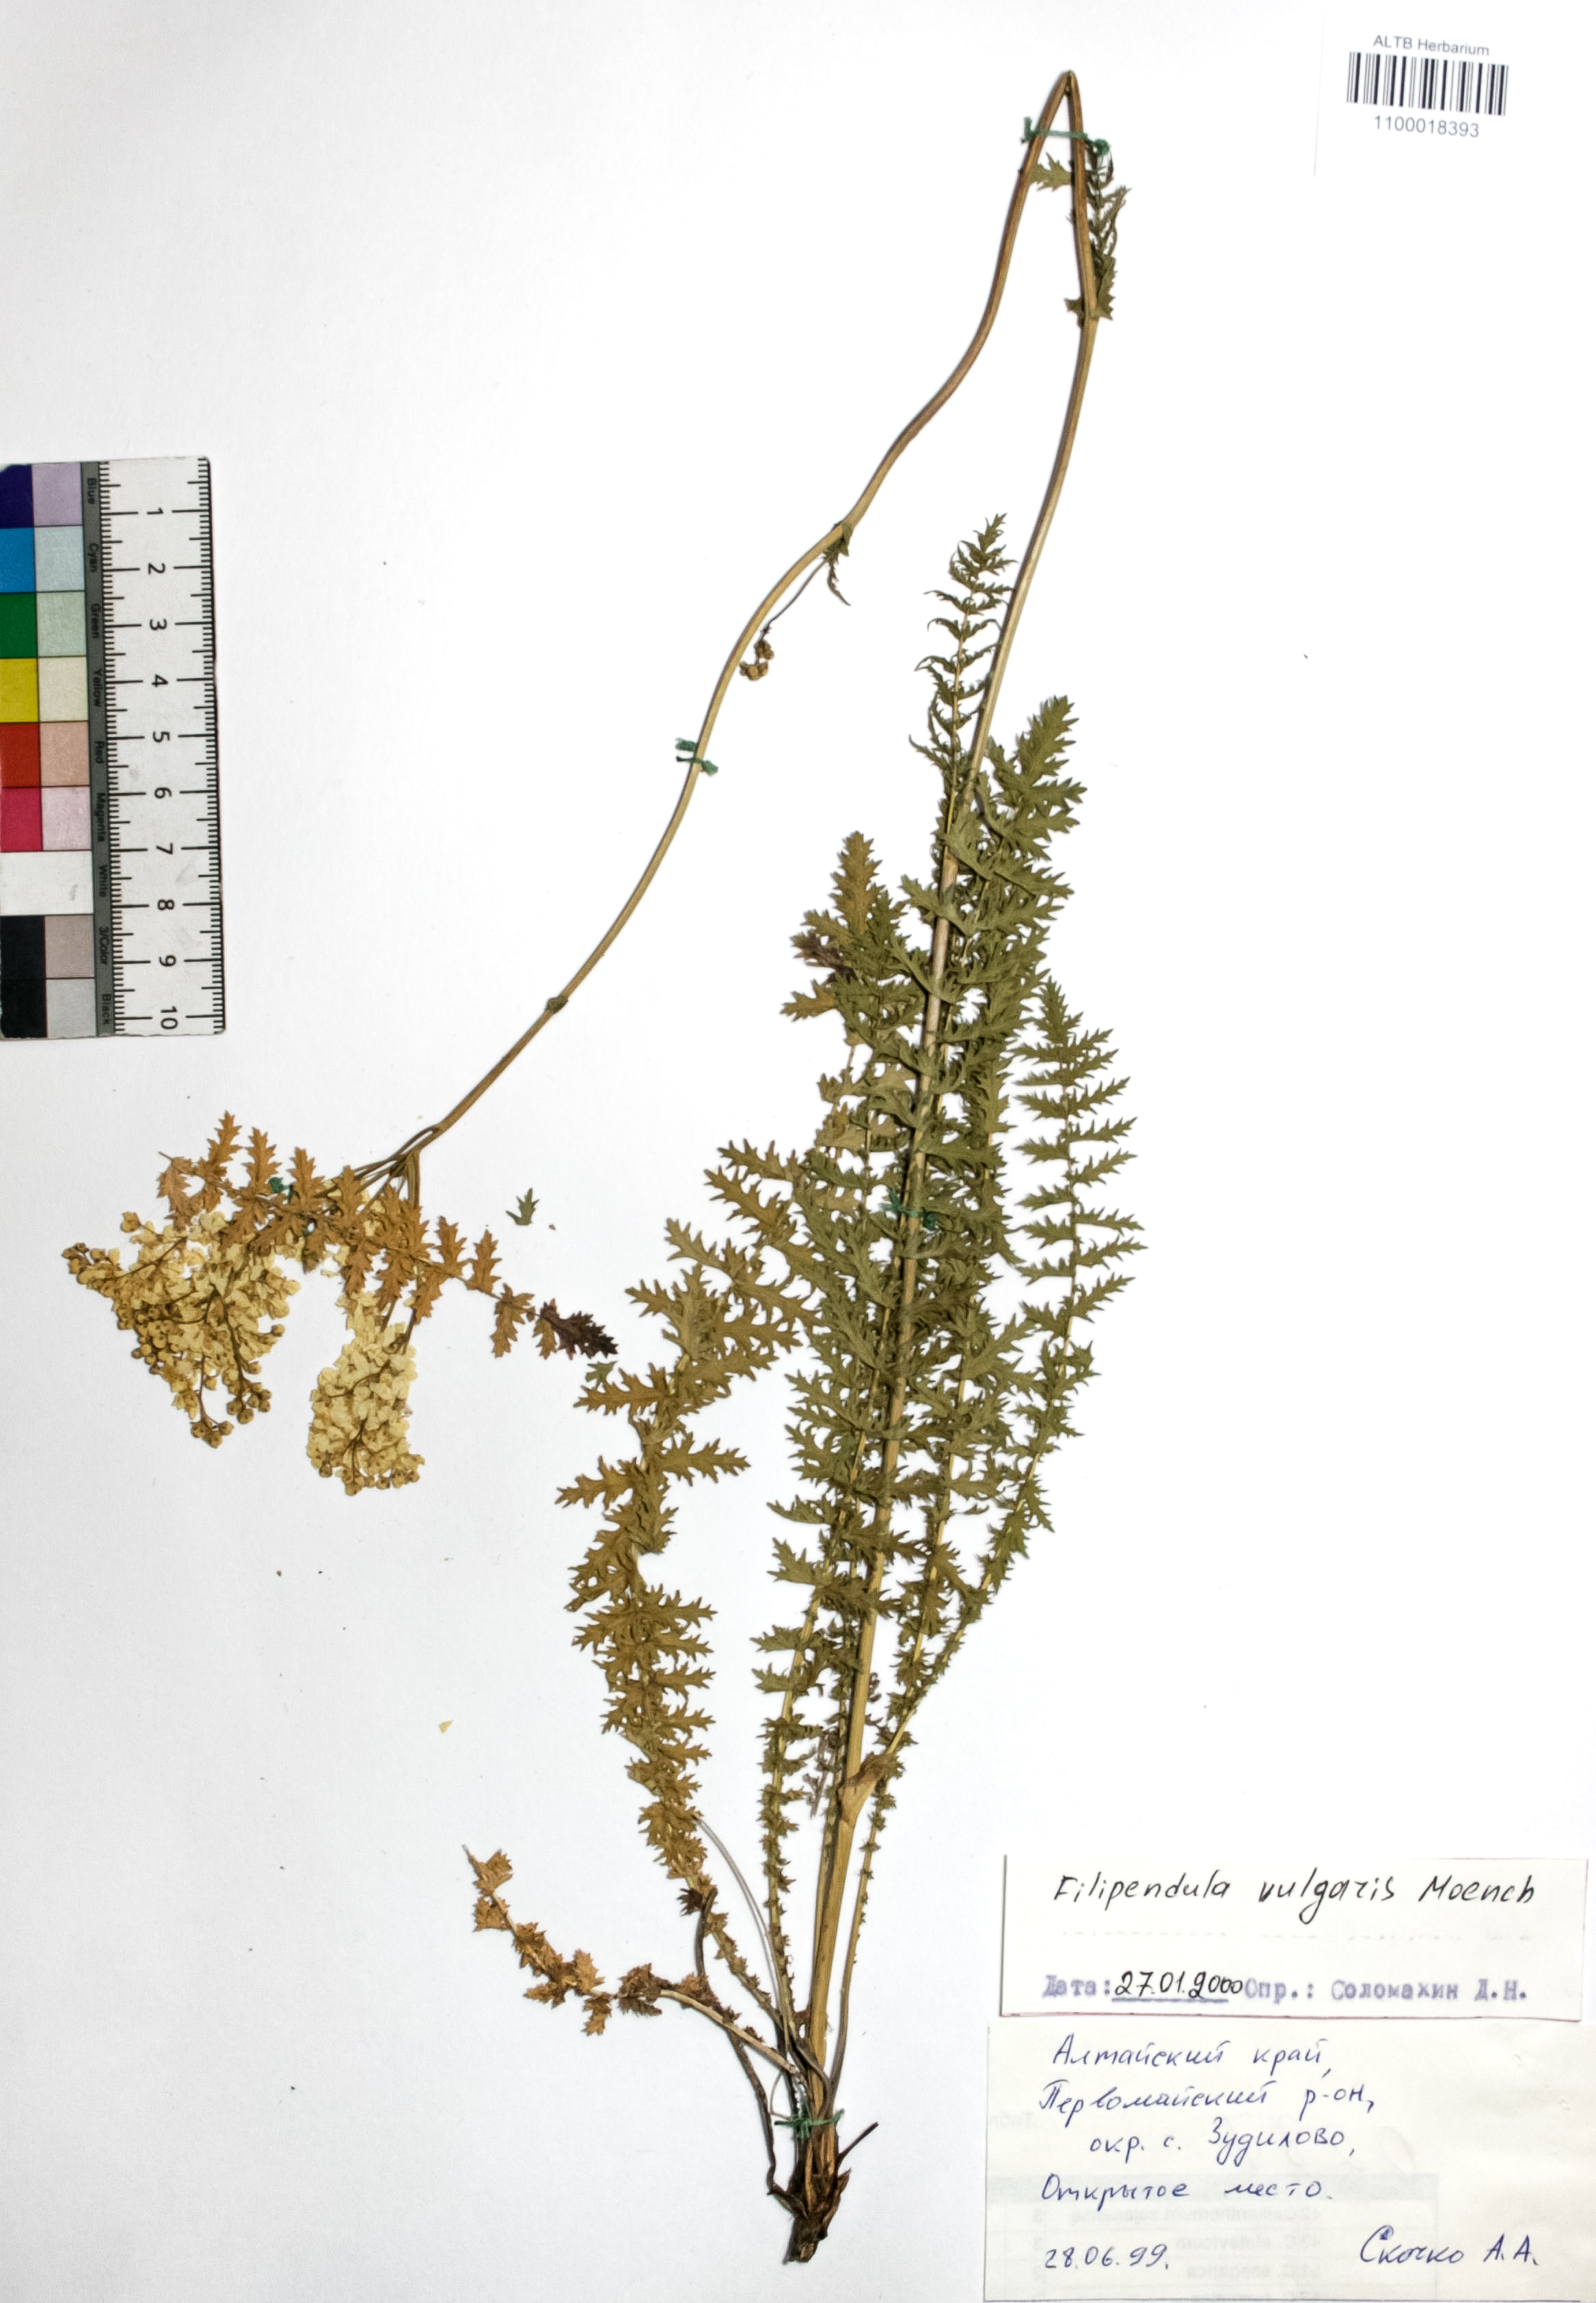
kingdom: Plantae
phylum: Tracheophyta
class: Magnoliopsida
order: Rosales
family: Rosaceae
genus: Filipendula
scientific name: Filipendula vulgaris
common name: Dropwort
